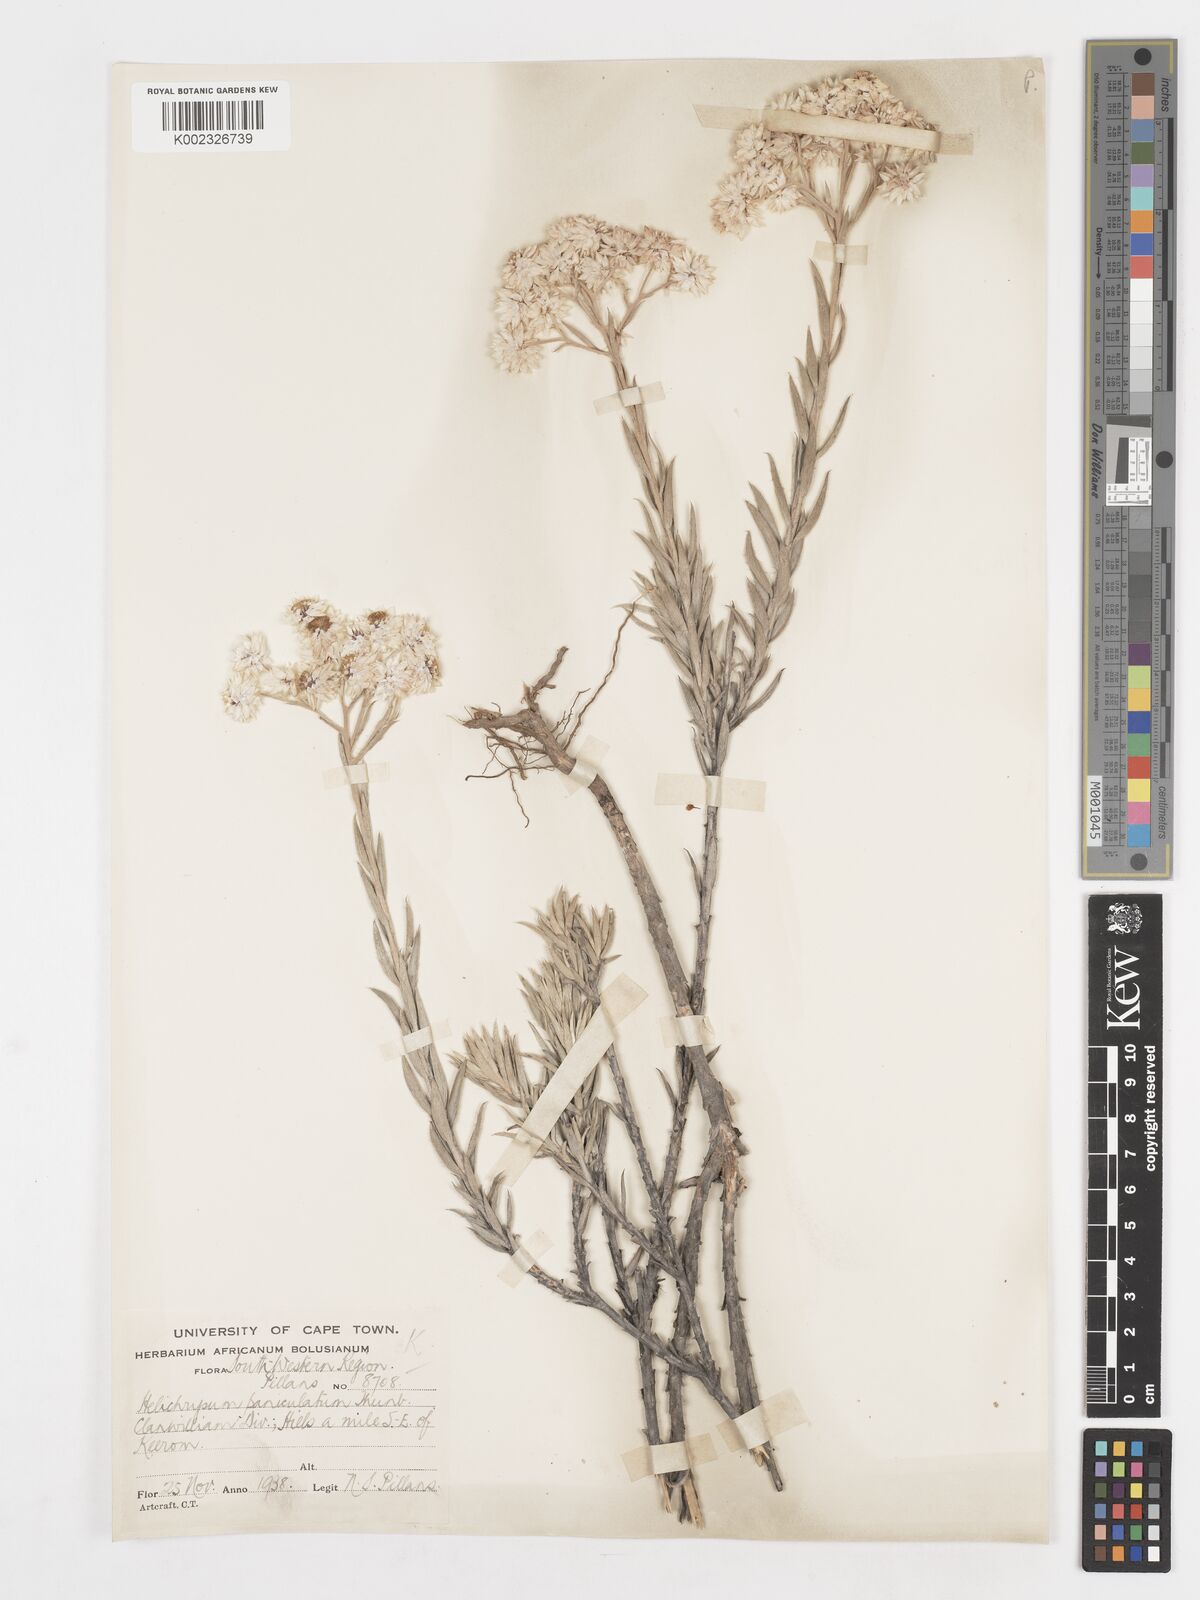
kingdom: Plantae
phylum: Tracheophyta
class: Magnoliopsida
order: Asterales
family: Asteraceae
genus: Achyranthemum
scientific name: Achyranthemum paniculatum
